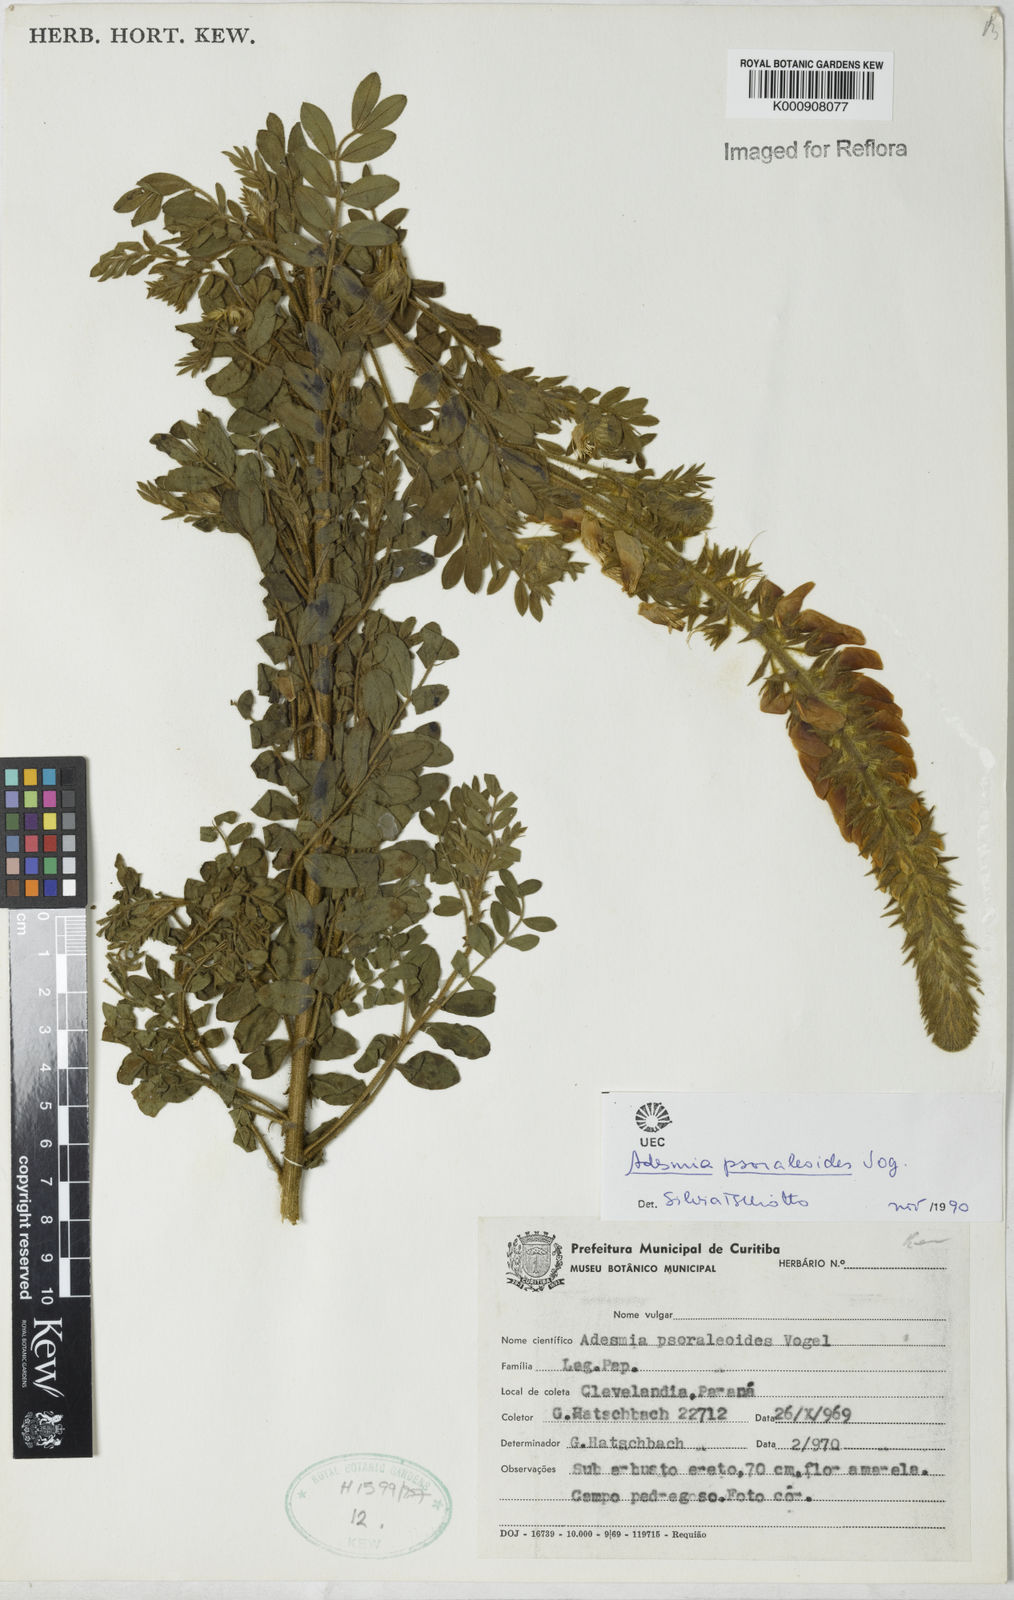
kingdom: Plantae
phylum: Tracheophyta
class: Magnoliopsida
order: Fabales
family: Fabaceae
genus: Adesmia
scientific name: Adesmia psoraleoides
